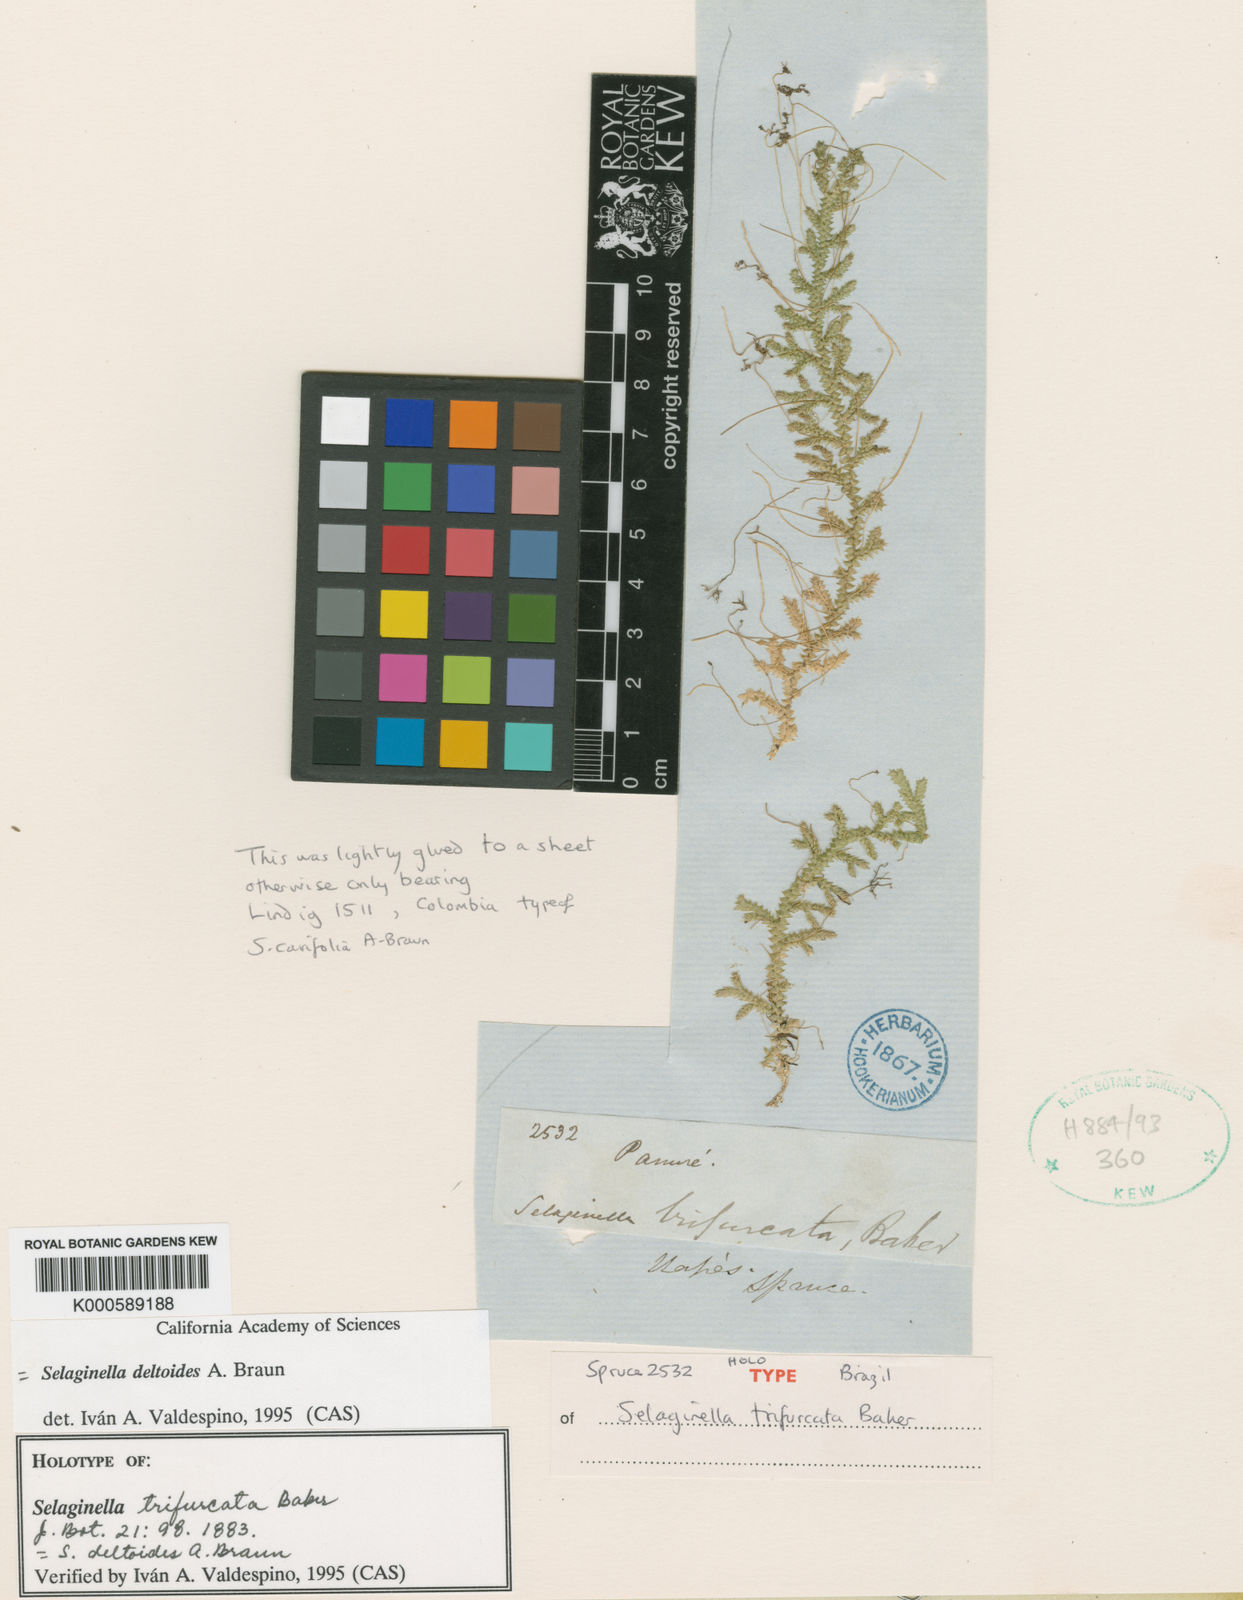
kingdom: Plantae
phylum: Tracheophyta
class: Lycopodiopsida
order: Selaginellales
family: Selaginellaceae
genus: Selaginella
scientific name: Selaginella
